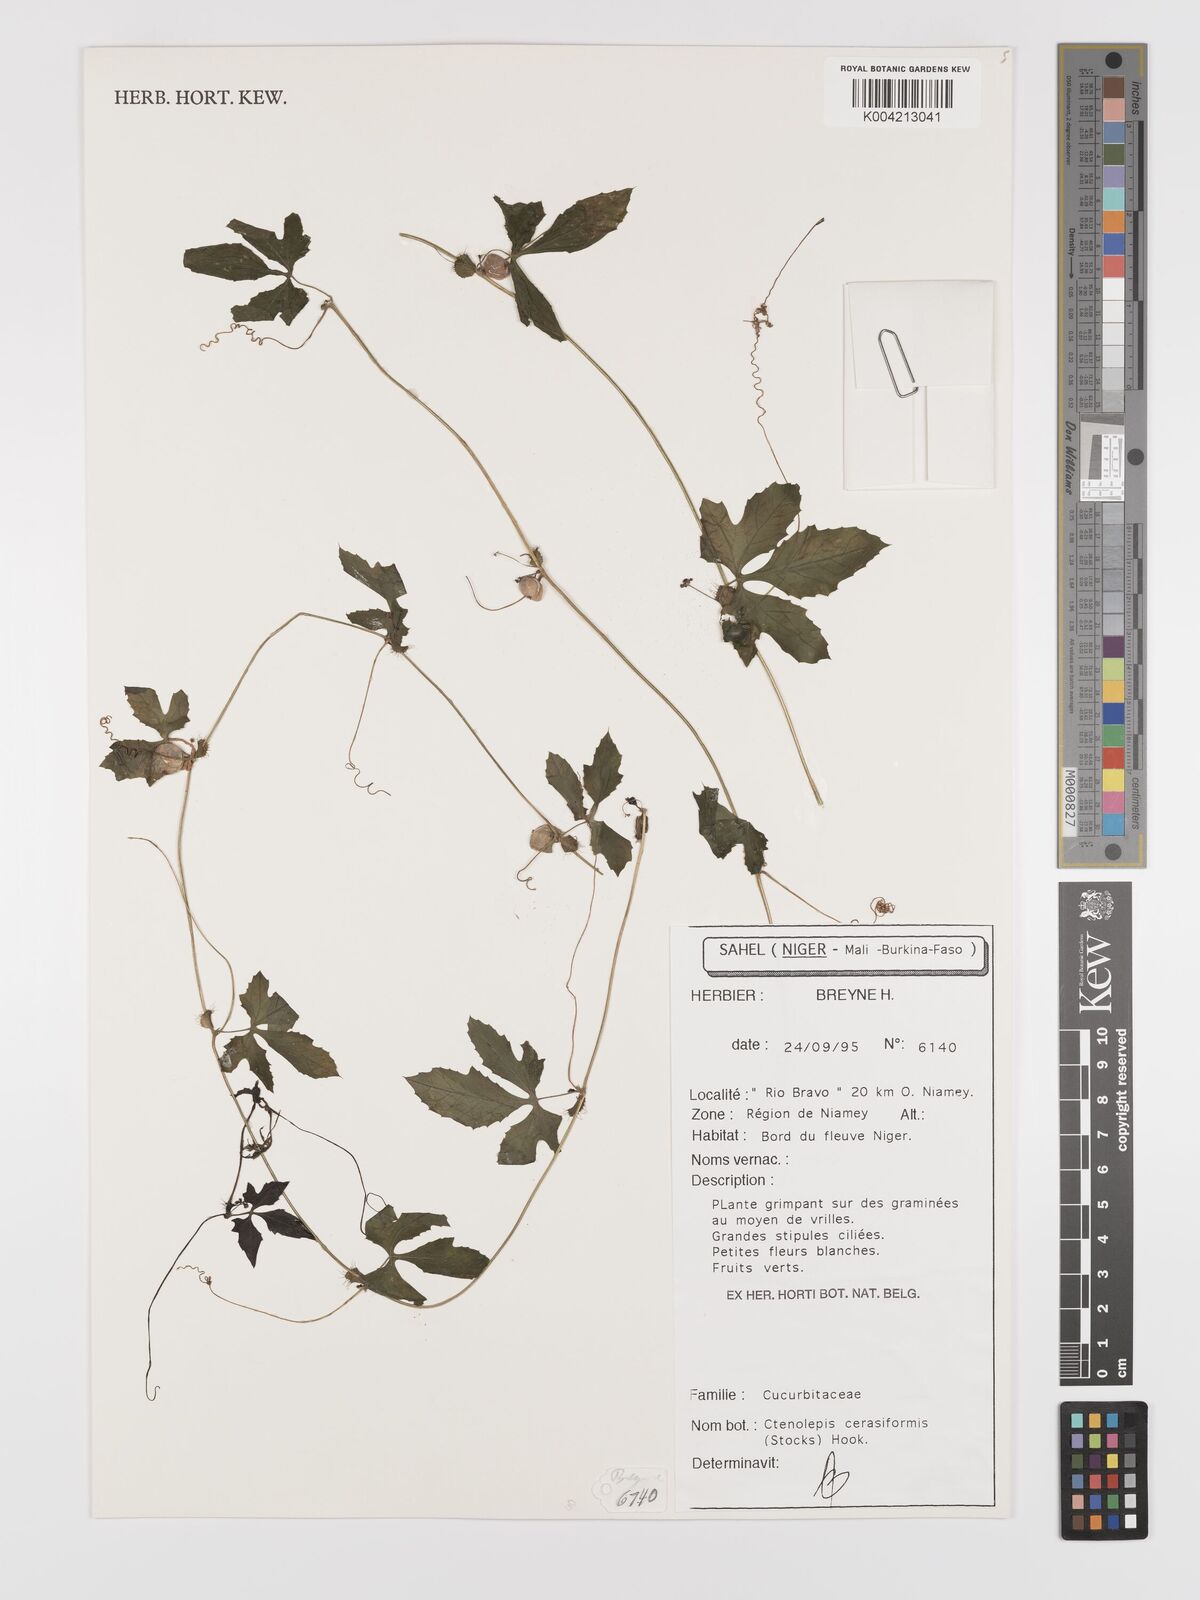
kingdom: Plantae
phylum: Tracheophyta
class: Magnoliopsida
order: Cucurbitales
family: Cucurbitaceae
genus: Blastania
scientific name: Blastania cerasiformis
